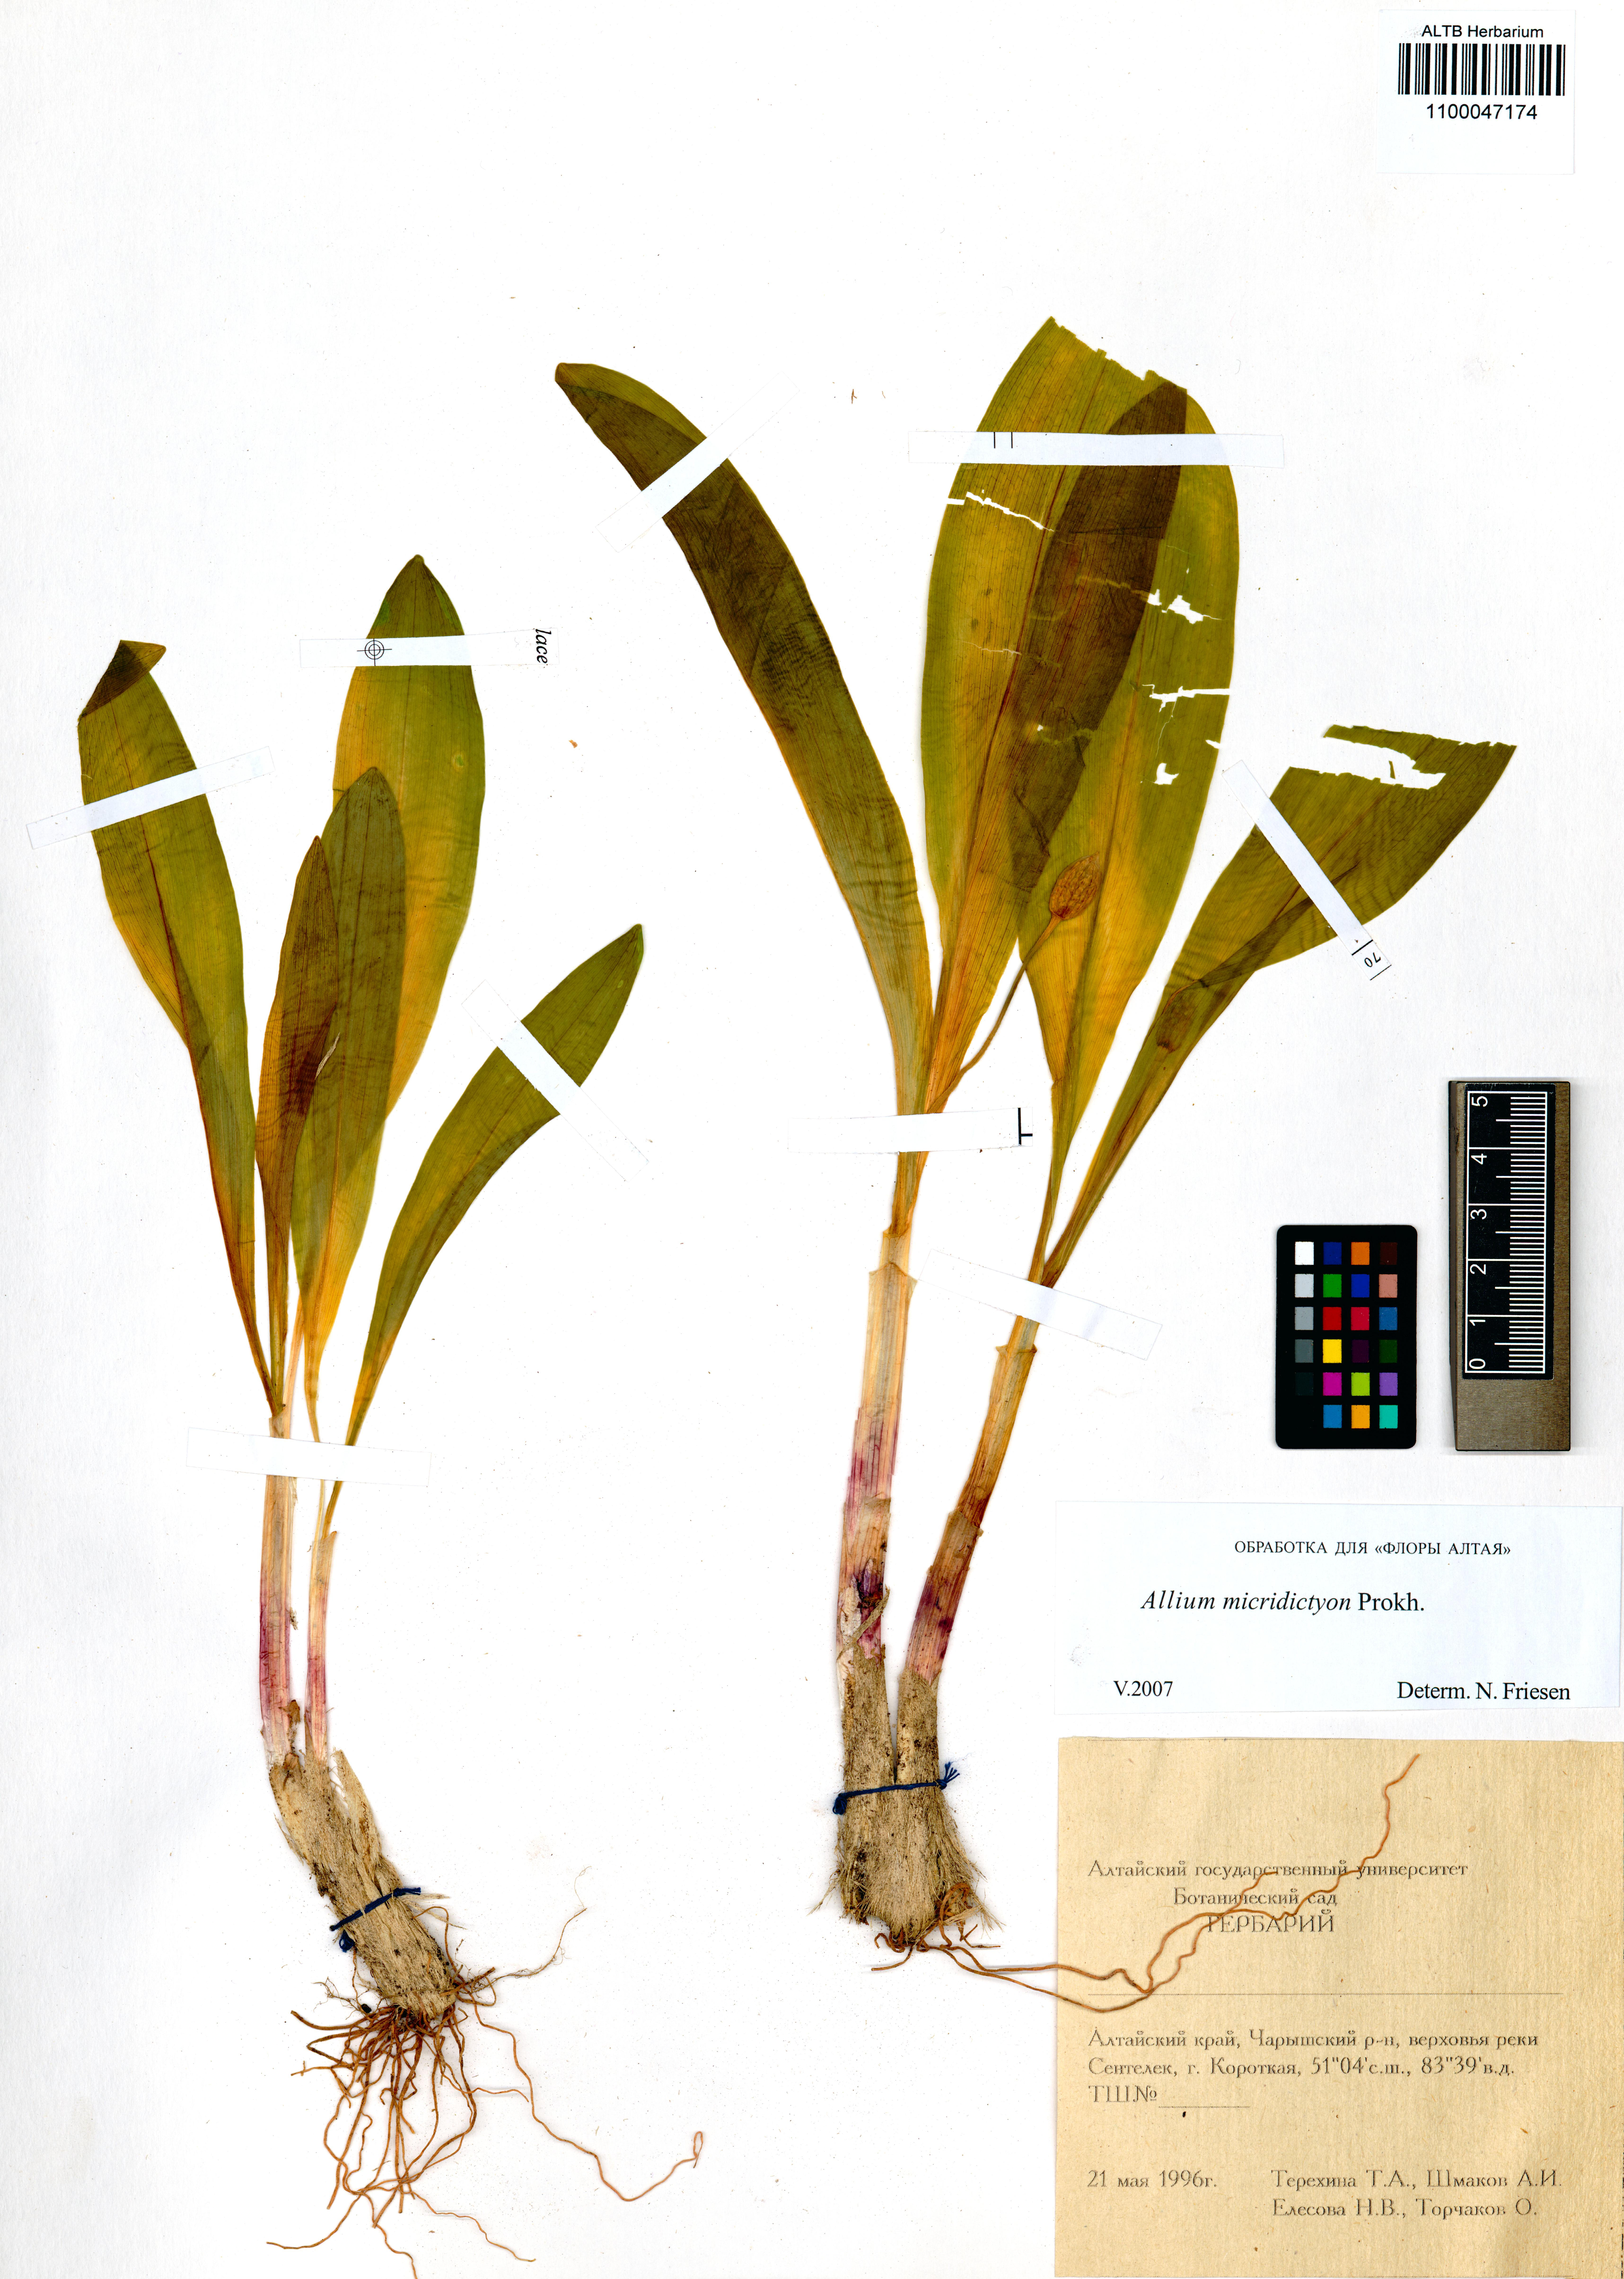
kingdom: Plantae
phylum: Tracheophyta
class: Liliopsida
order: Asparagales
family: Amaryllidaceae
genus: Allium
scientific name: Allium microdictyon
